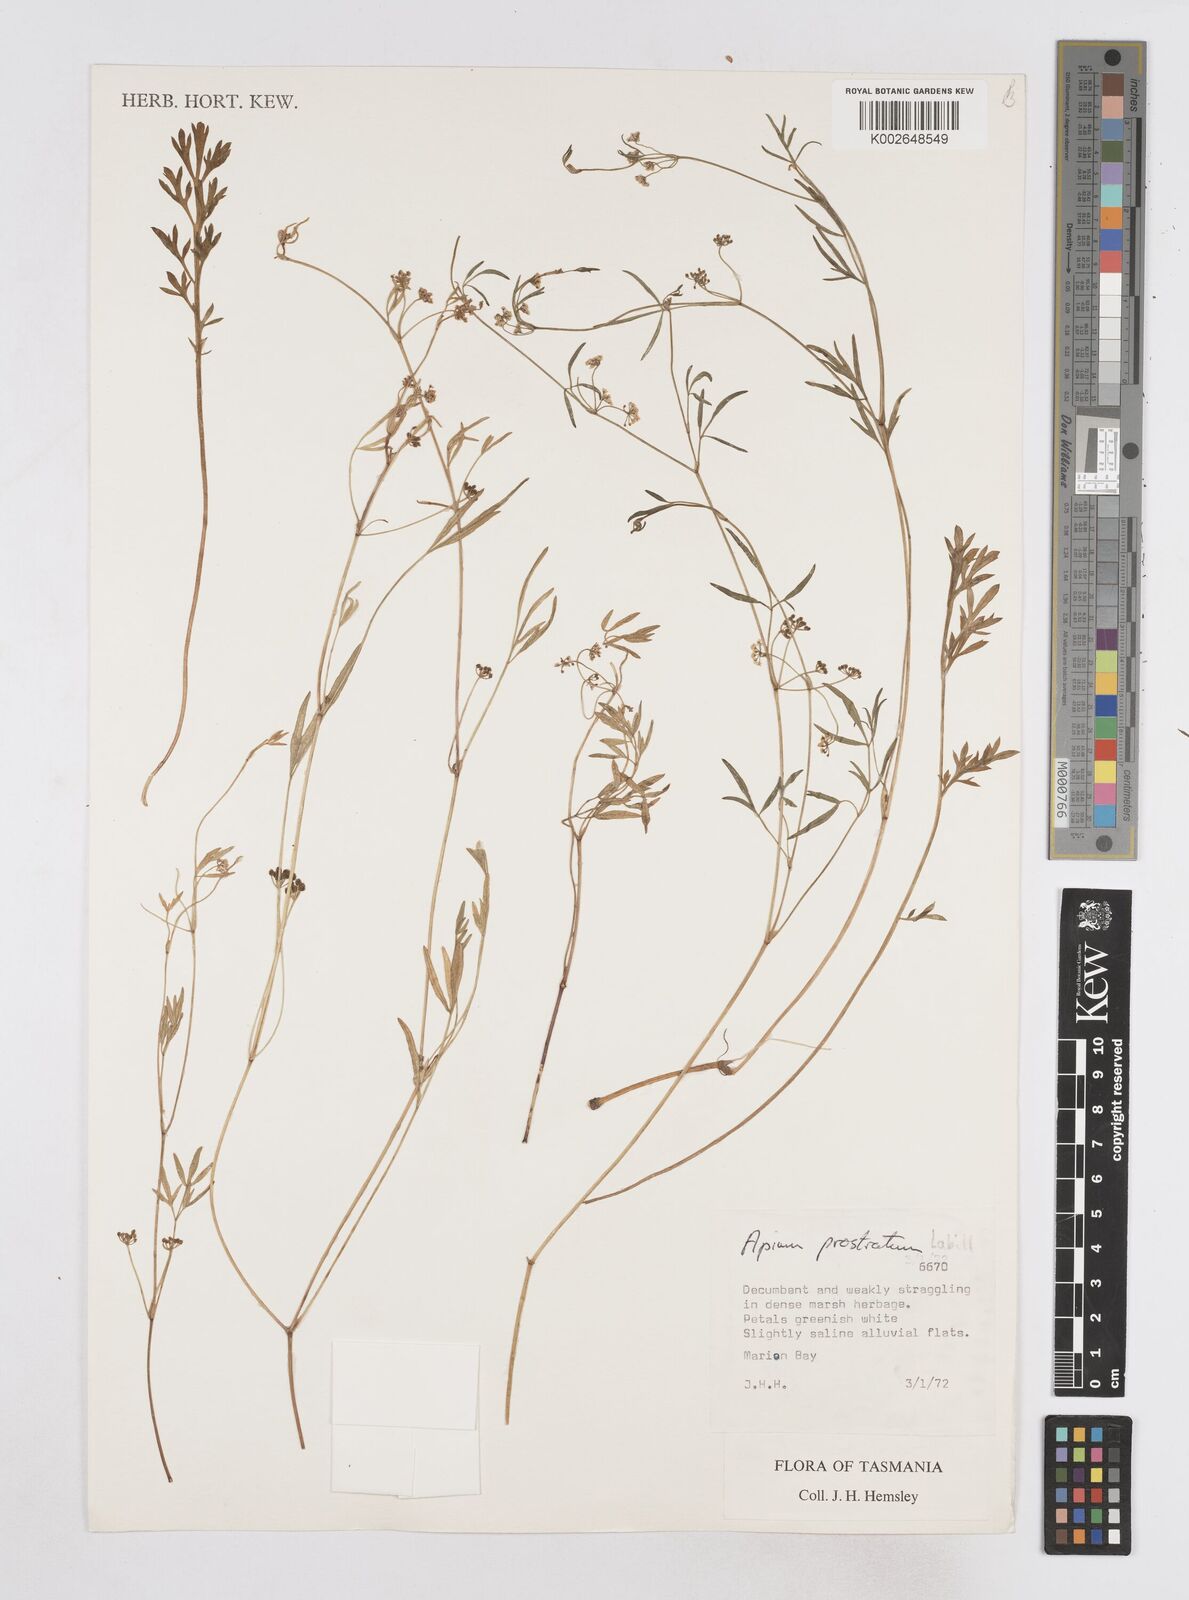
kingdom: Plantae
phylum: Tracheophyta
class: Magnoliopsida
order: Apiales
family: Apiaceae
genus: Apium
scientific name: Apium prostratum
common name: Prostrate marshwort
